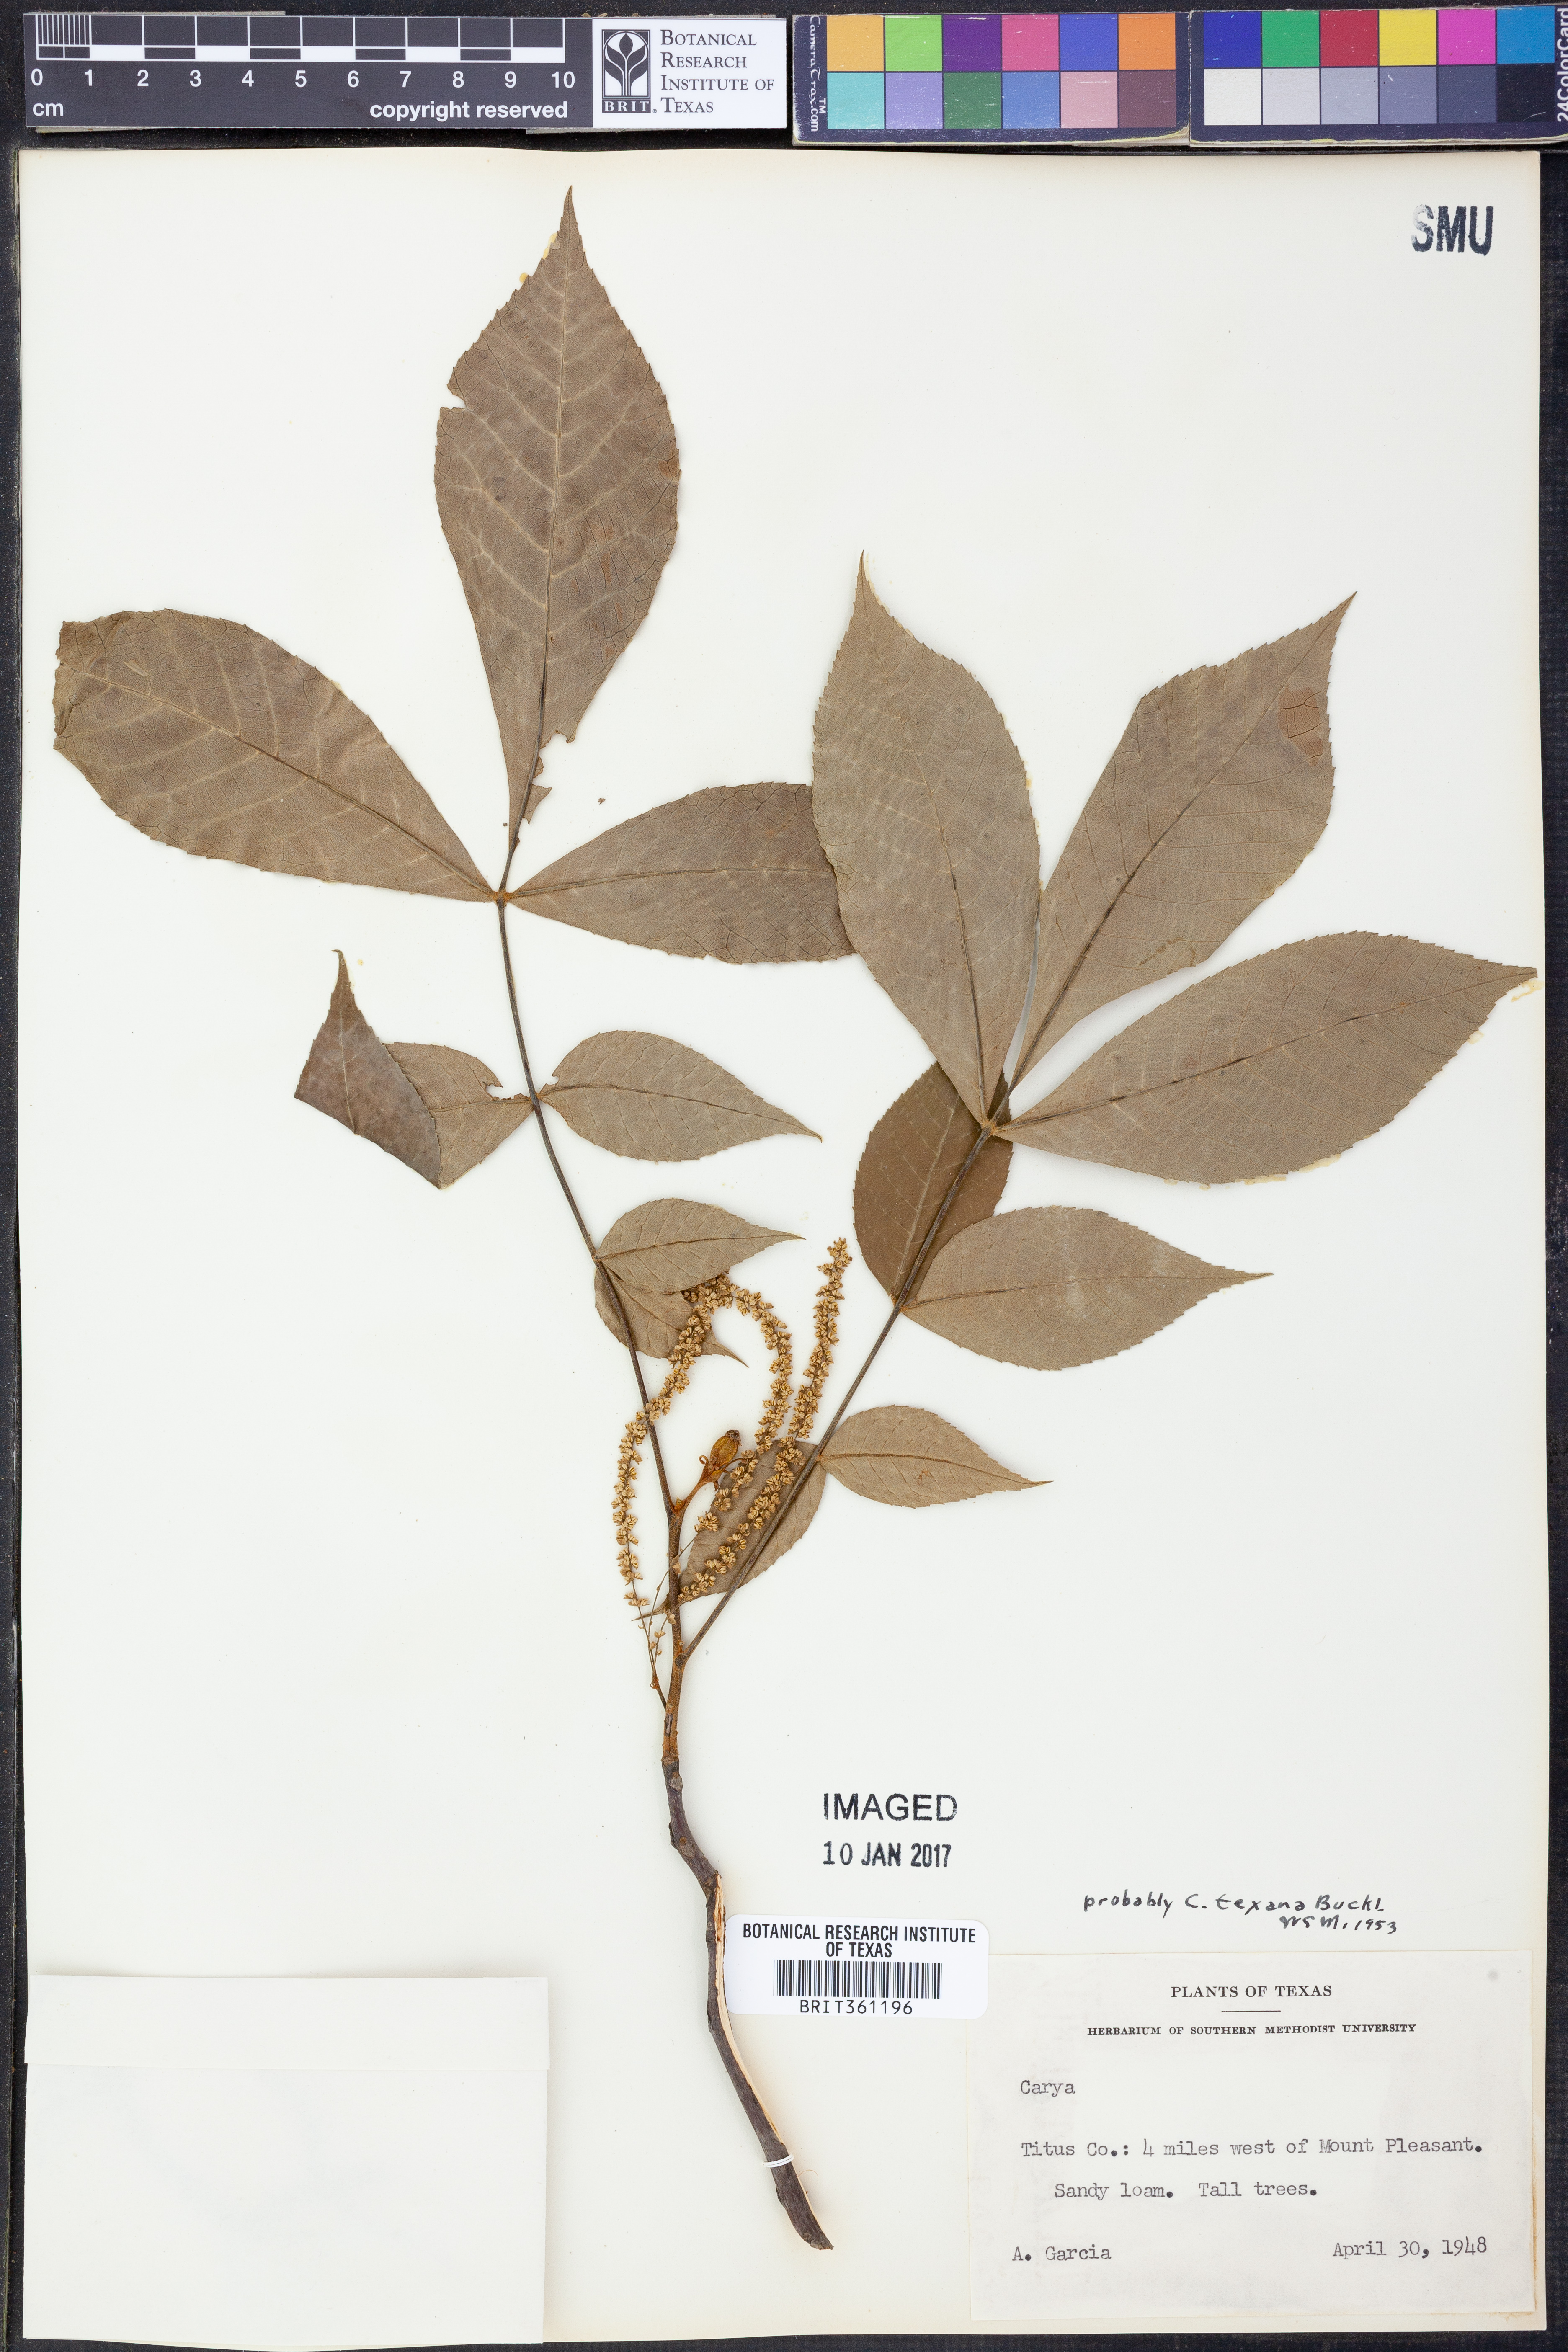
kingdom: Plantae
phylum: Tracheophyta
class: Magnoliopsida
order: Fagales
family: Juglandaceae
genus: Carya
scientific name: Carya texana
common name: Black hickory
